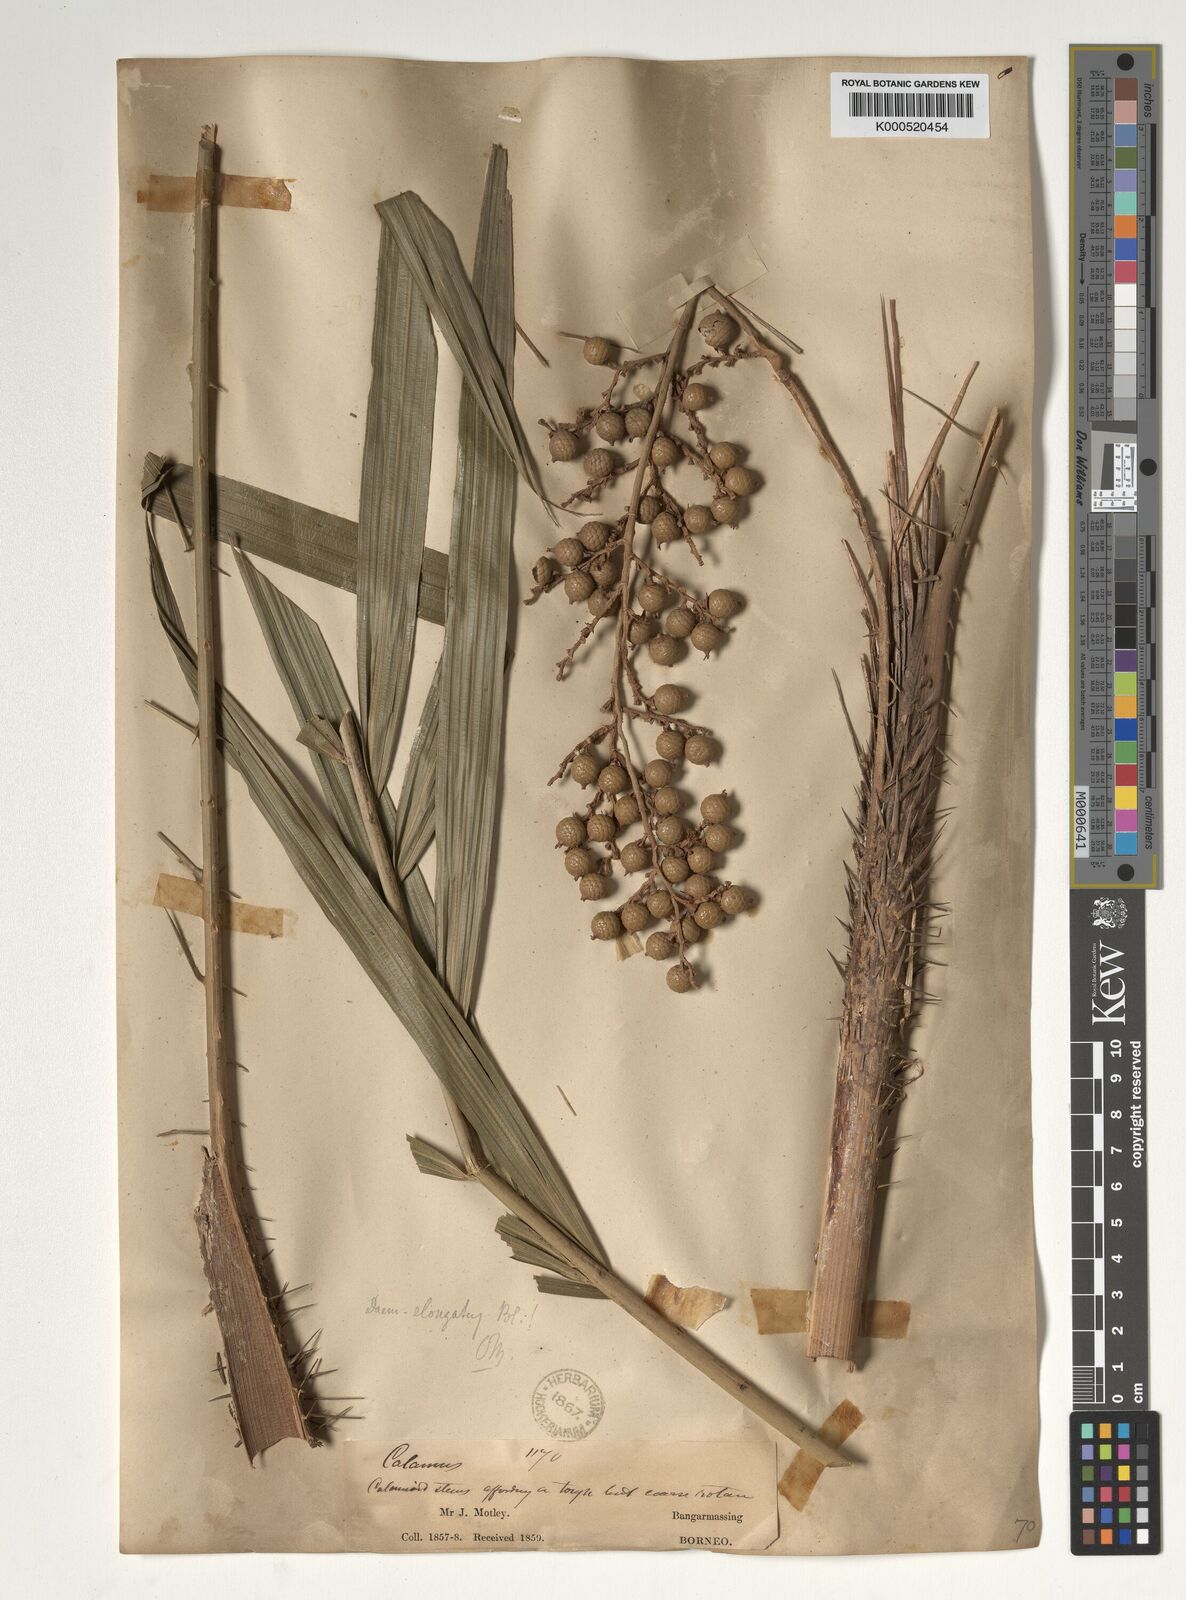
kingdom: Plantae
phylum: Tracheophyta
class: Liliopsida
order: Arecales
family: Arecaceae
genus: Calamus
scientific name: Calamus oblongus
